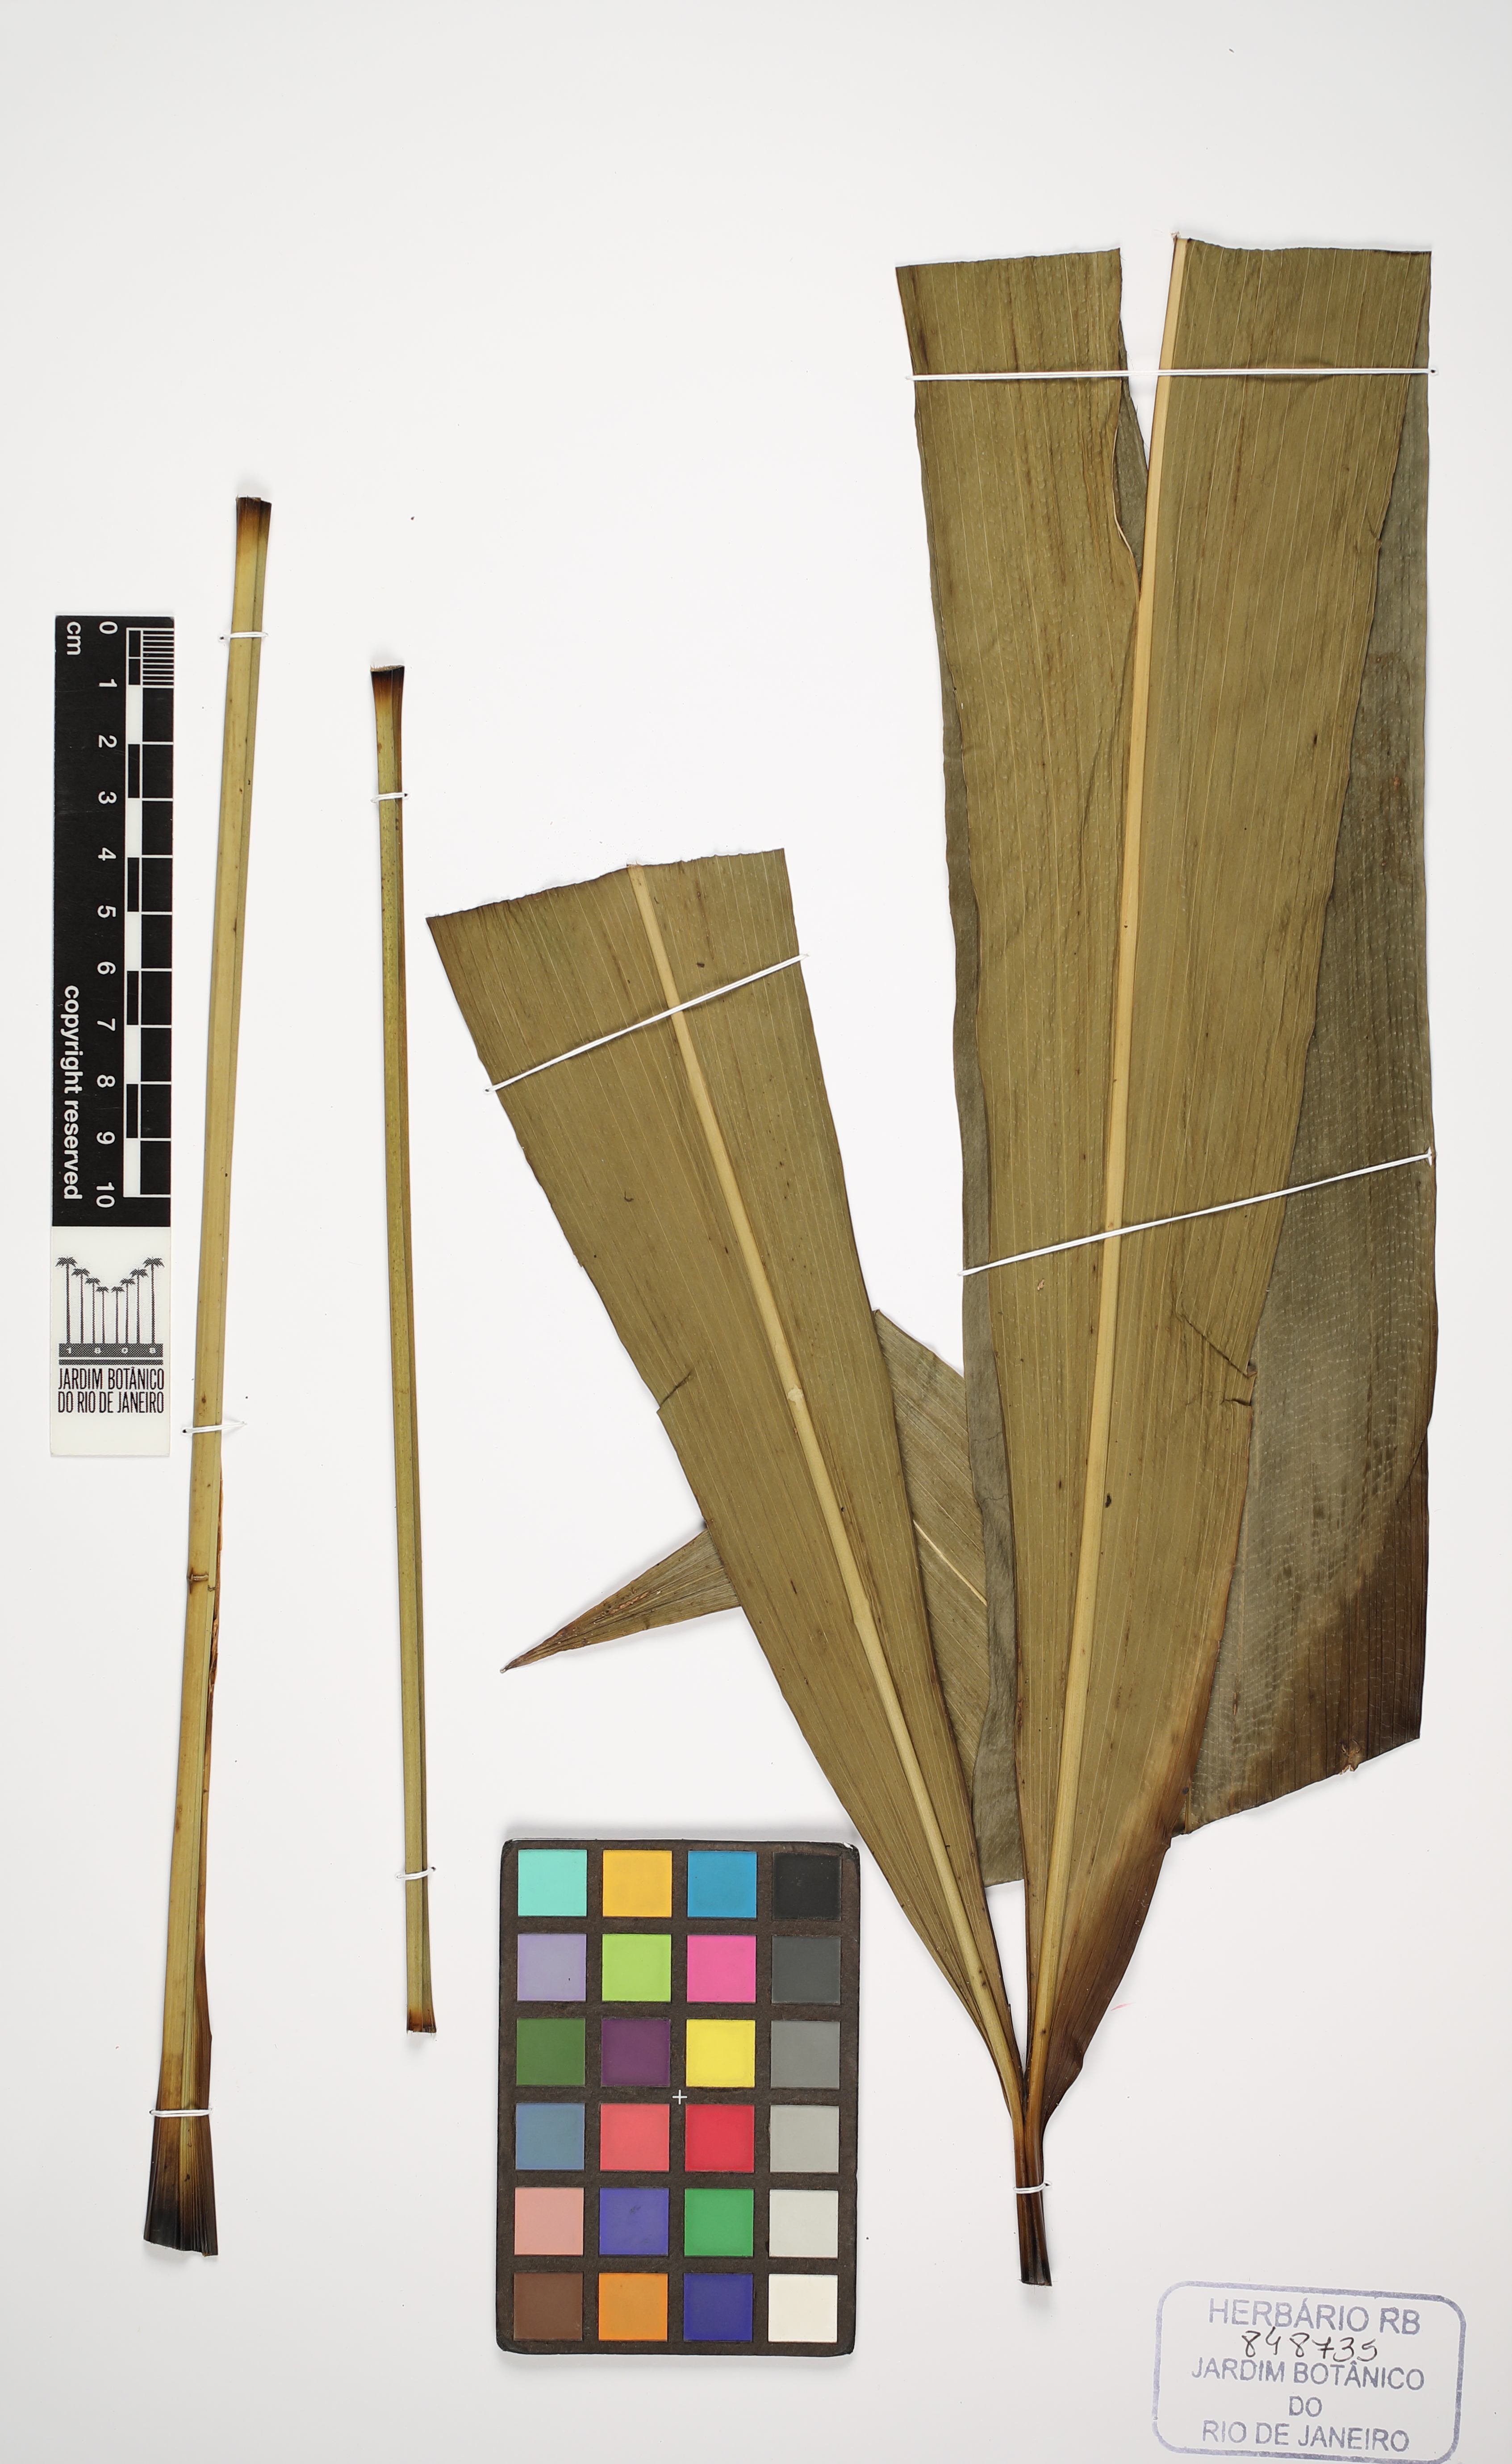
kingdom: Plantae
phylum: Tracheophyta
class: Liliopsida
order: Pandanales
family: Cyclanthaceae
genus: Cyclanthus
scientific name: Cyclanthus bipartitus
